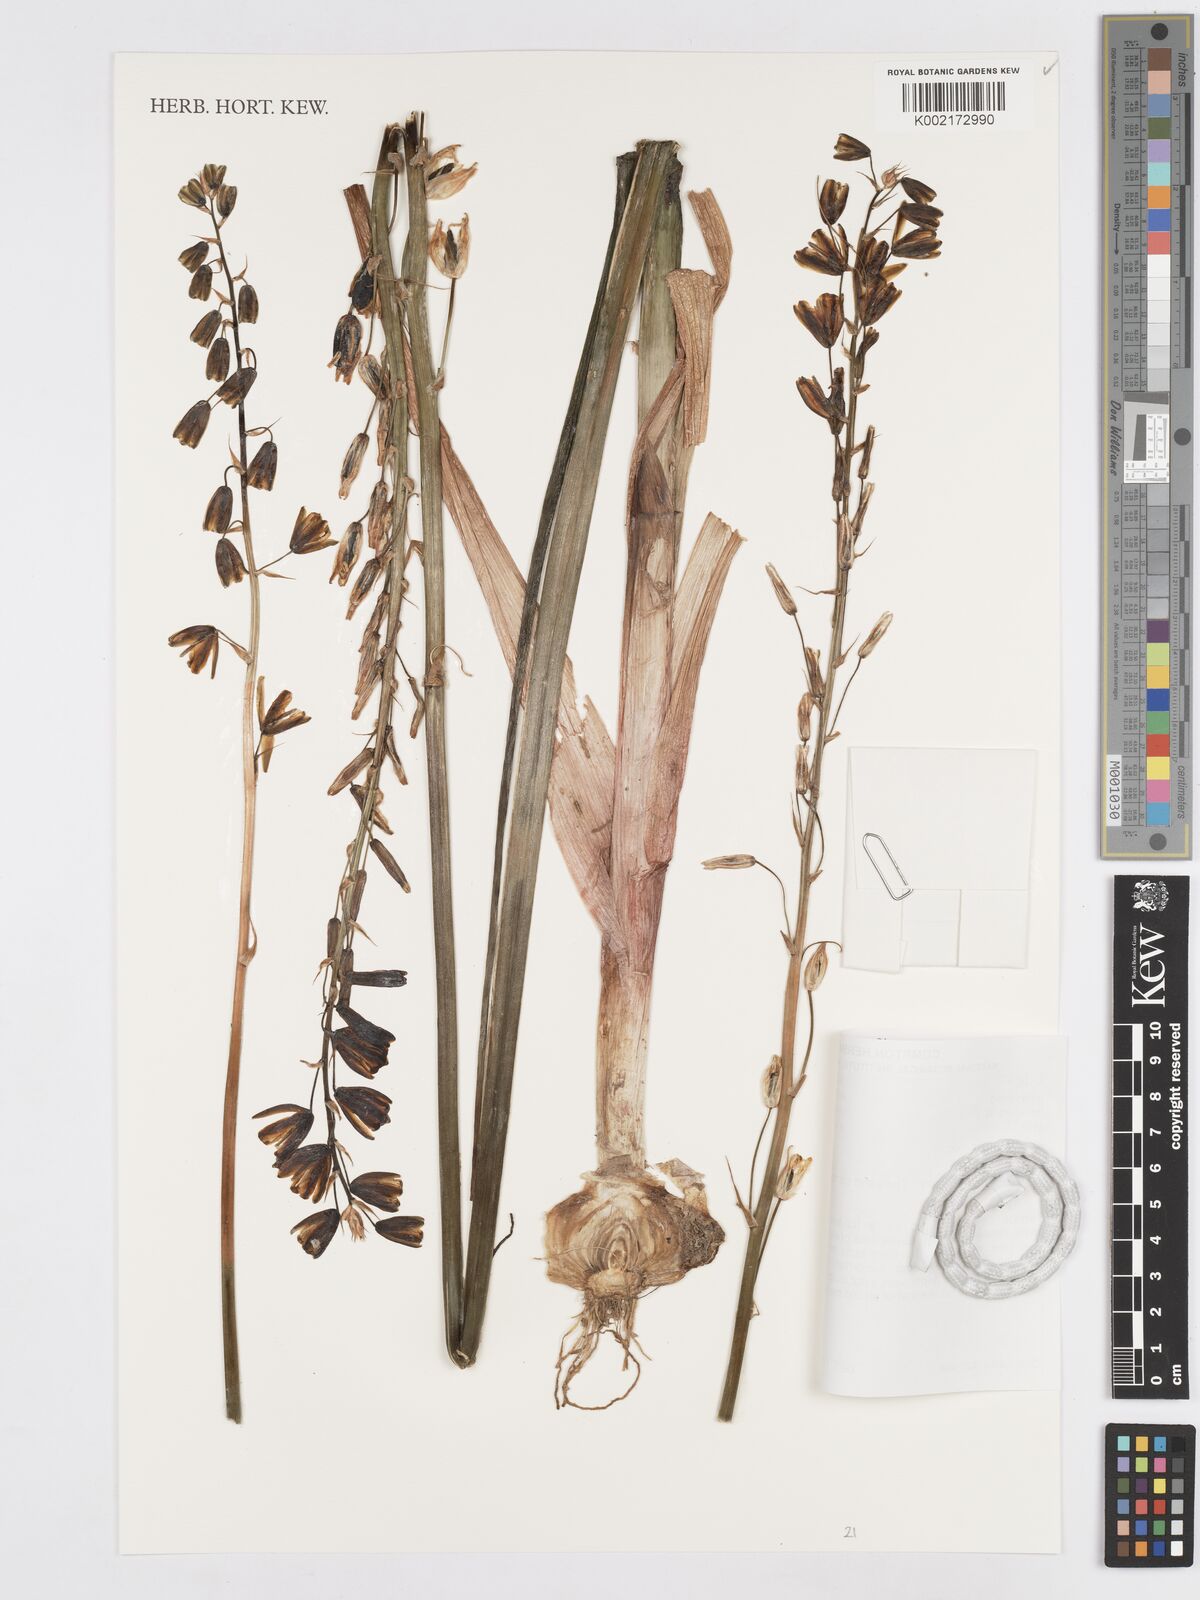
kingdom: Plantae
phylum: Tracheophyta
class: Liliopsida
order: Asparagales
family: Asparagaceae
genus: Albuca
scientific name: Albuca fragrans
